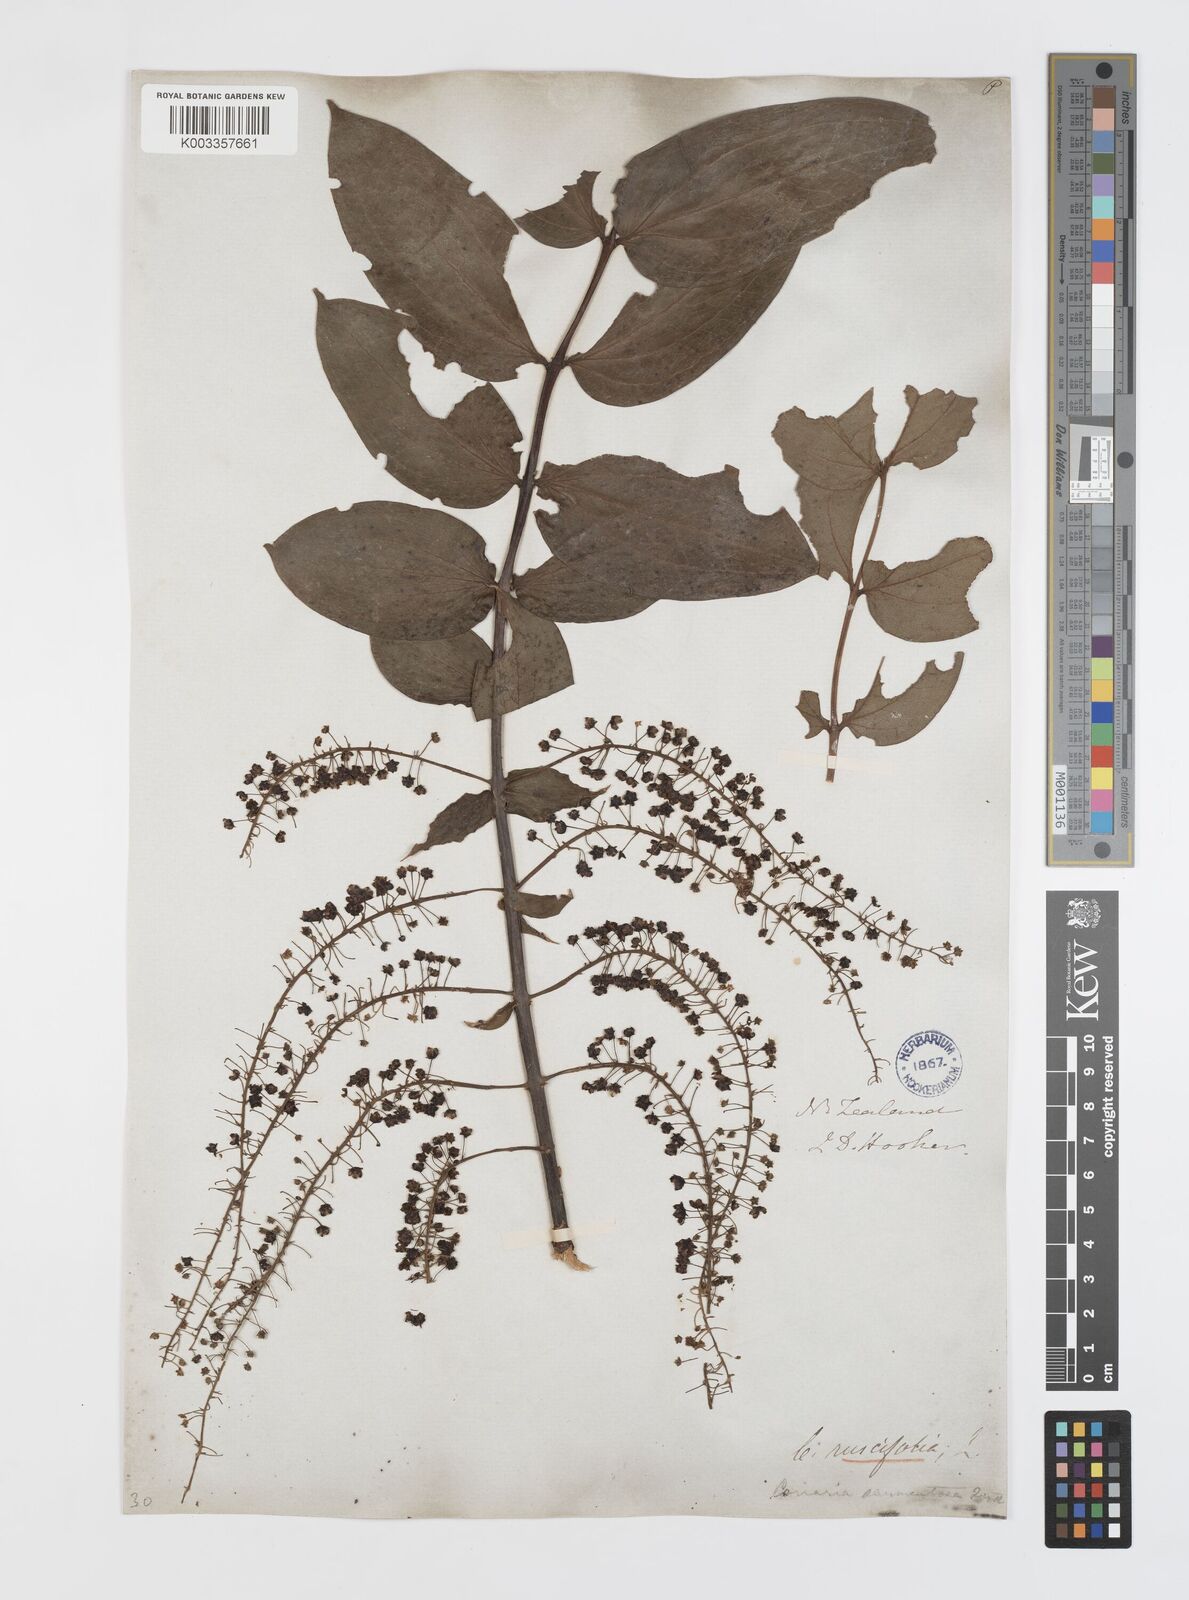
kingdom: Plantae
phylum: Tracheophyta
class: Magnoliopsida
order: Cucurbitales
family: Coriariaceae
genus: Coriaria
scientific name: Coriaria ruscifolia
